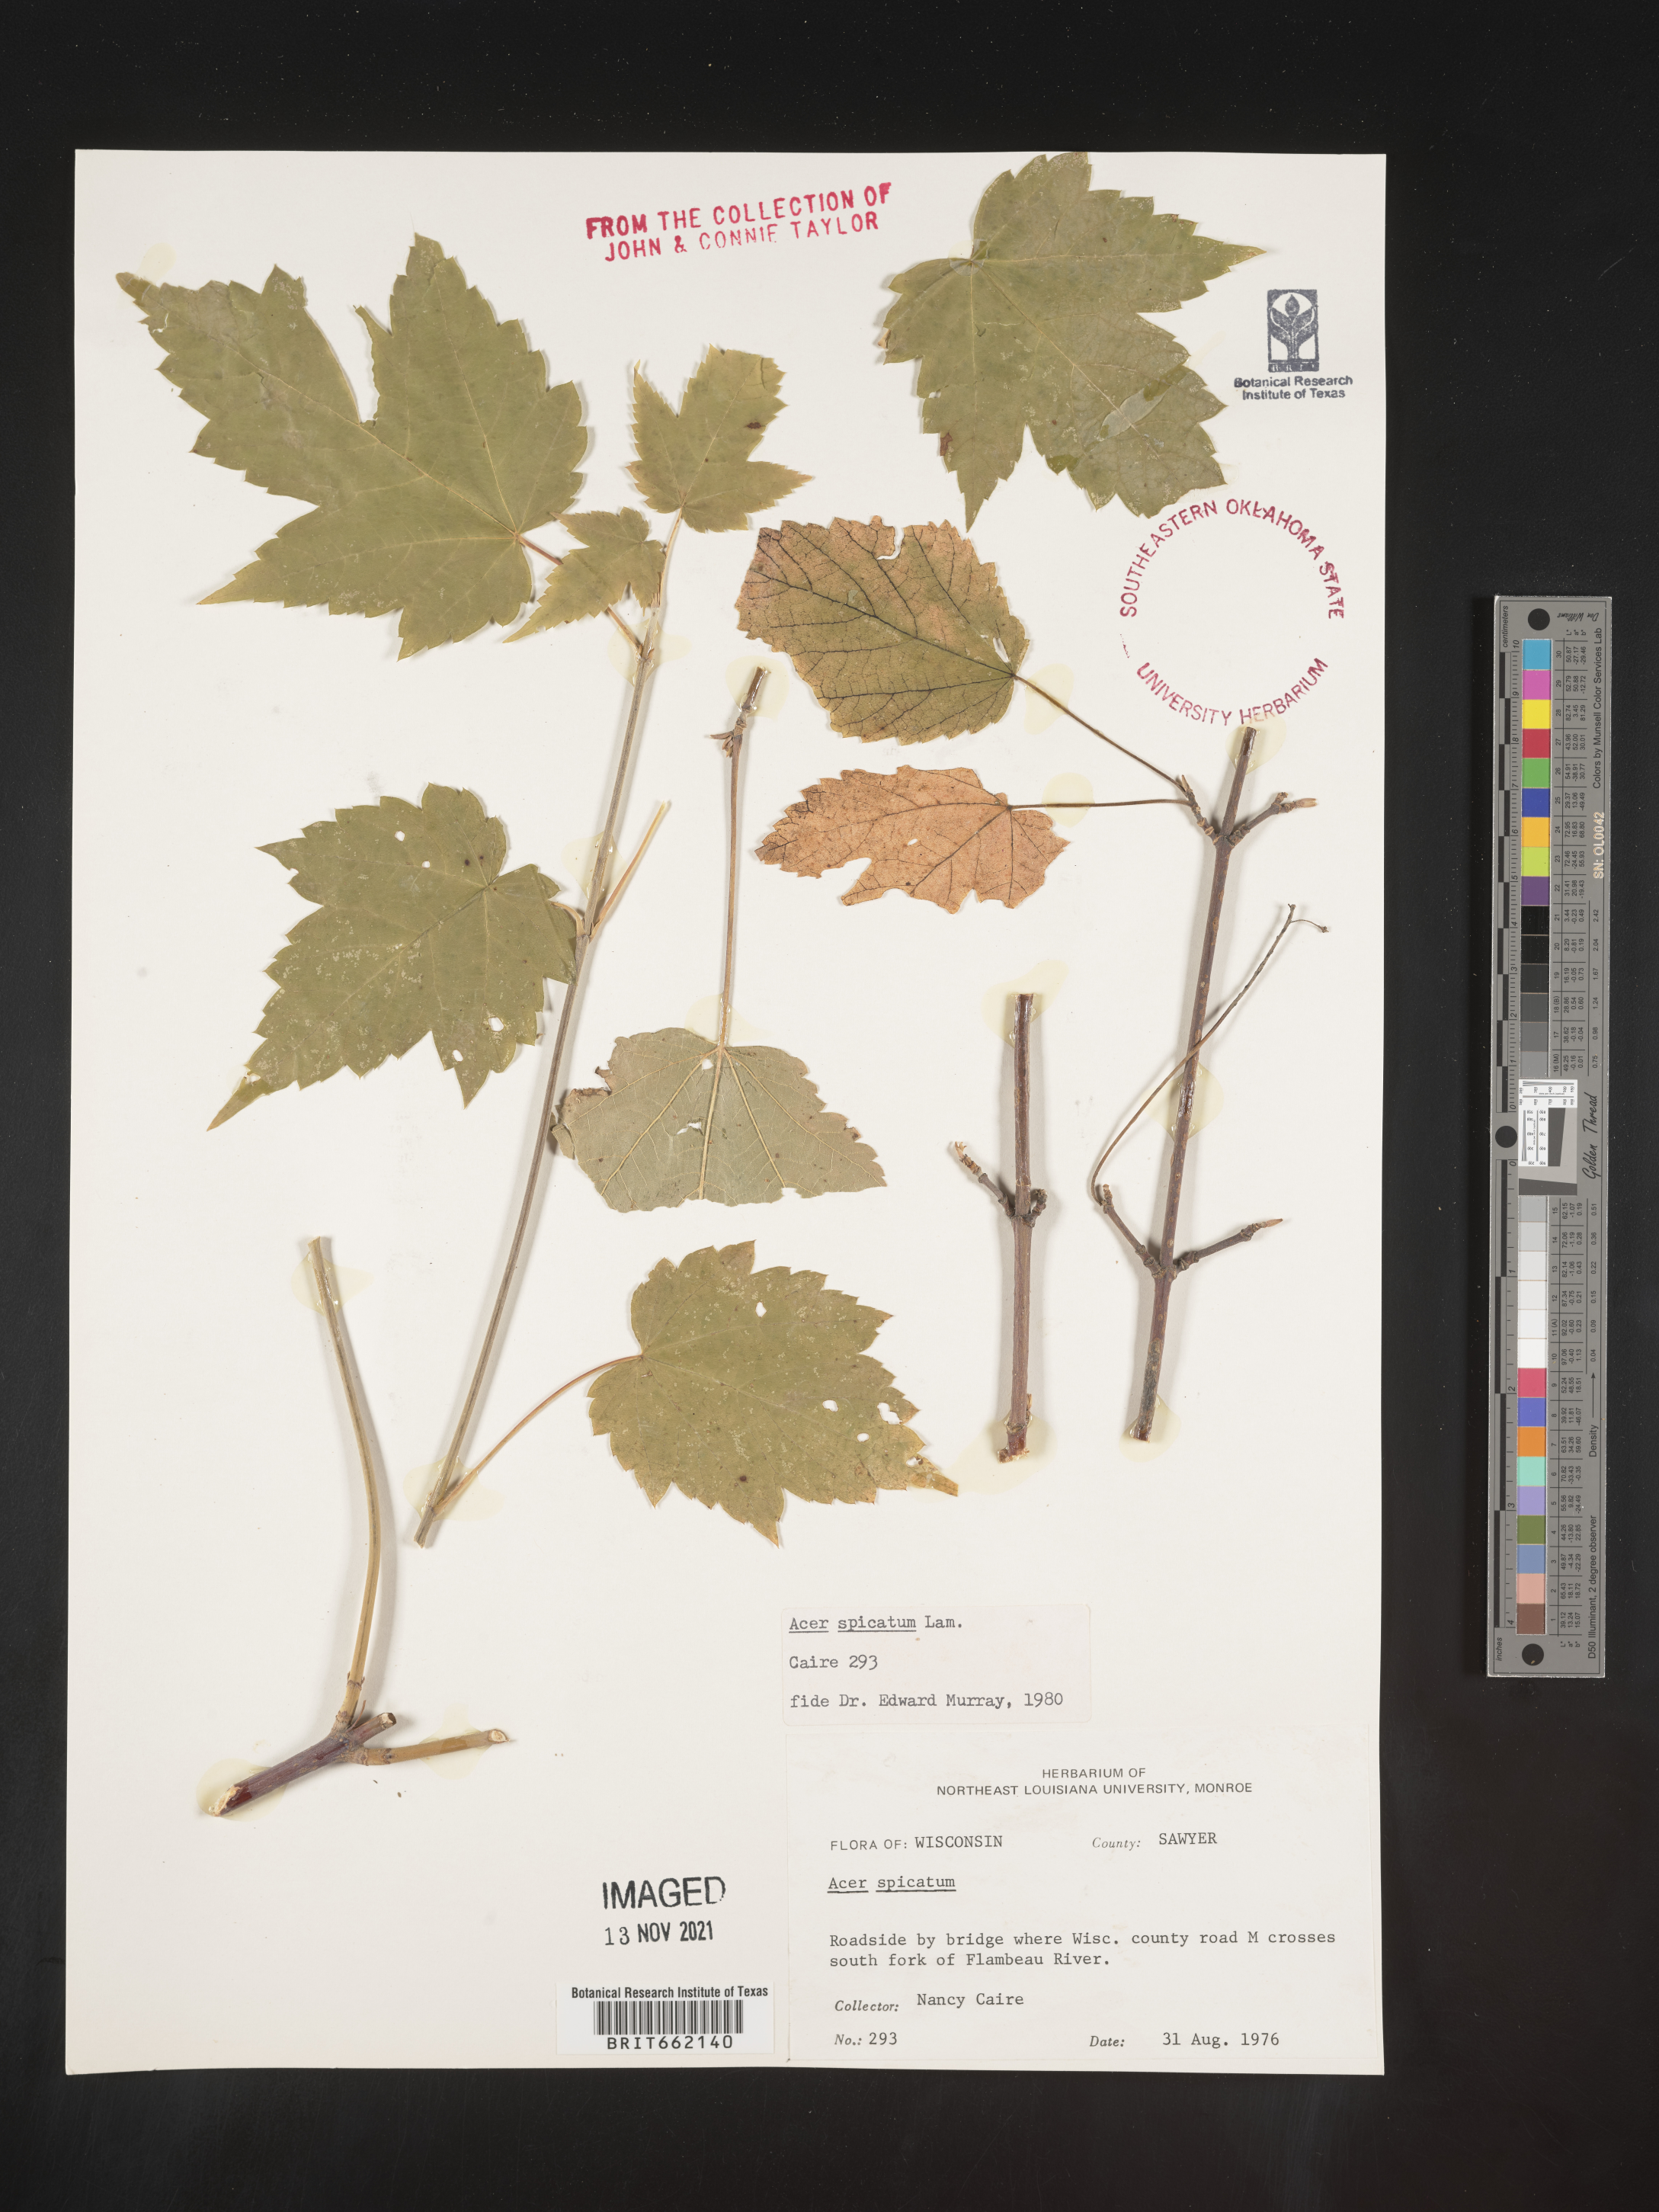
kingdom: Plantae
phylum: Tracheophyta
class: Magnoliopsida
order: Sapindales
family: Sapindaceae
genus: Acer
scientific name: Acer spicatum
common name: Mountain maple
